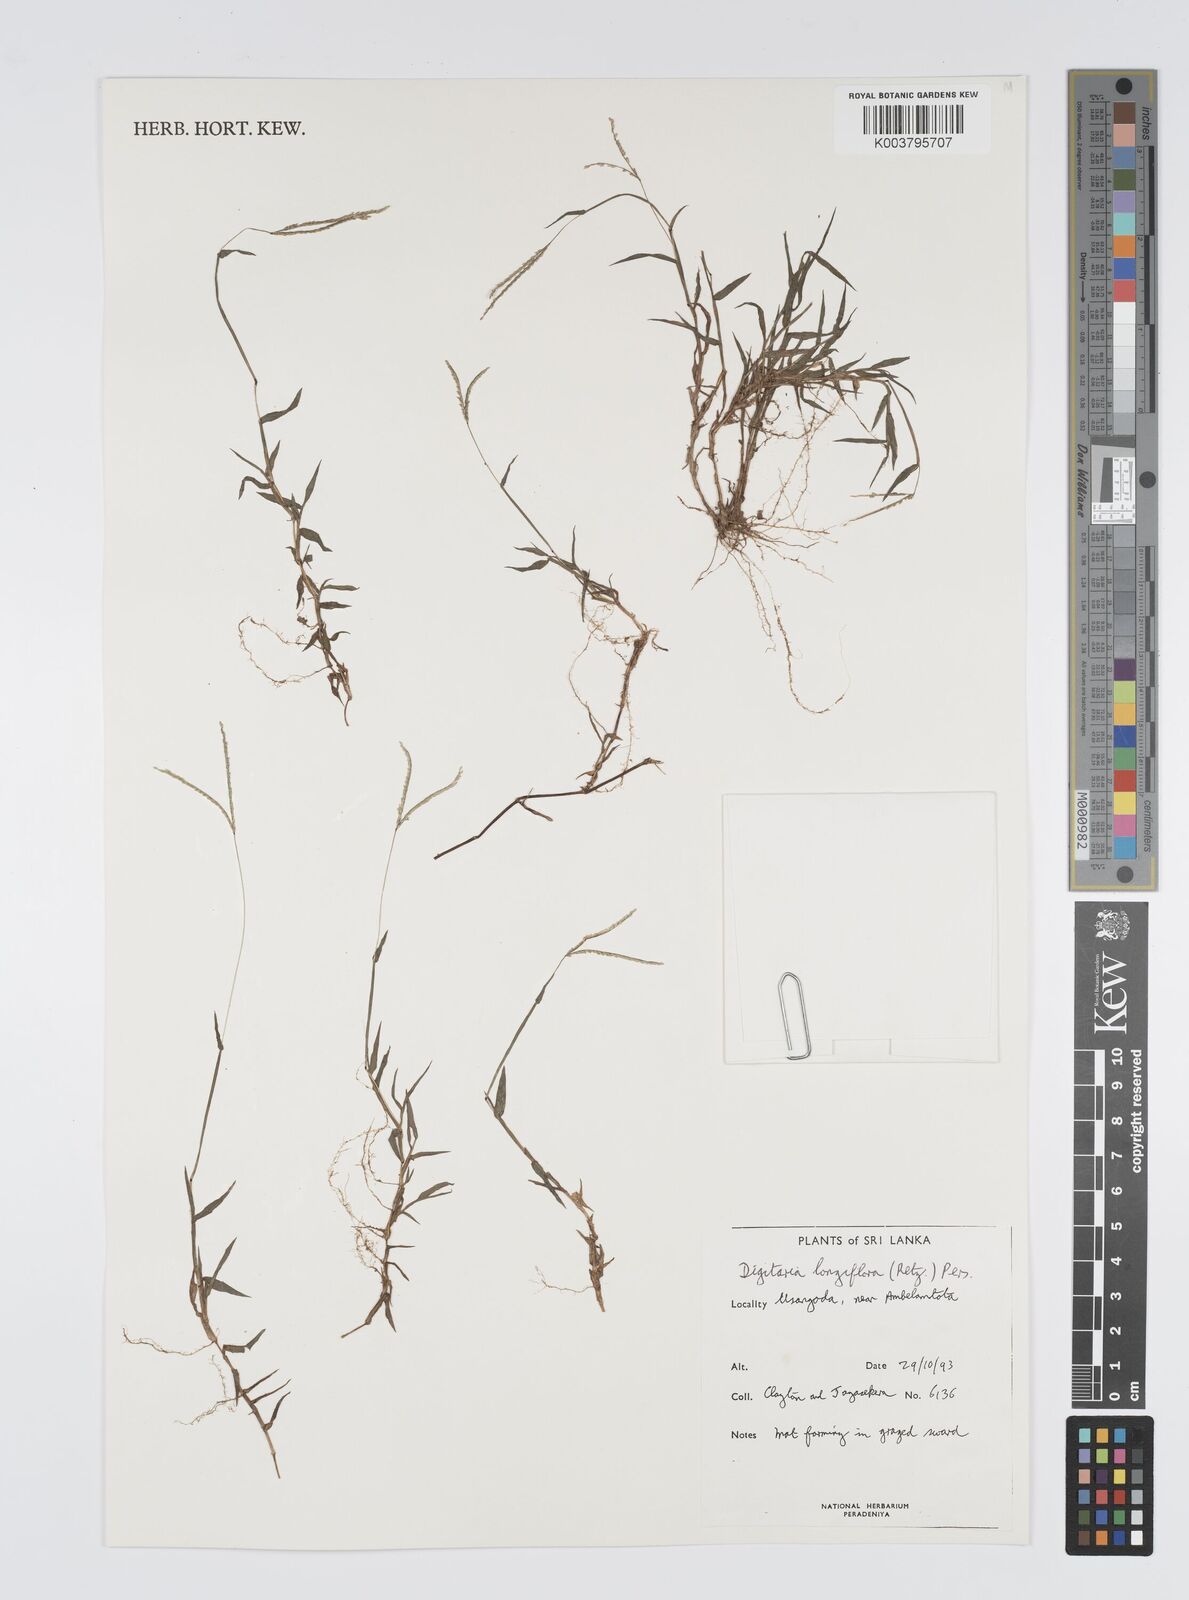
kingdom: Plantae
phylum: Tracheophyta
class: Liliopsida
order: Poales
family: Poaceae
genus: Digitaria
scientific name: Digitaria longiflora
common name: Wire crabgrass
